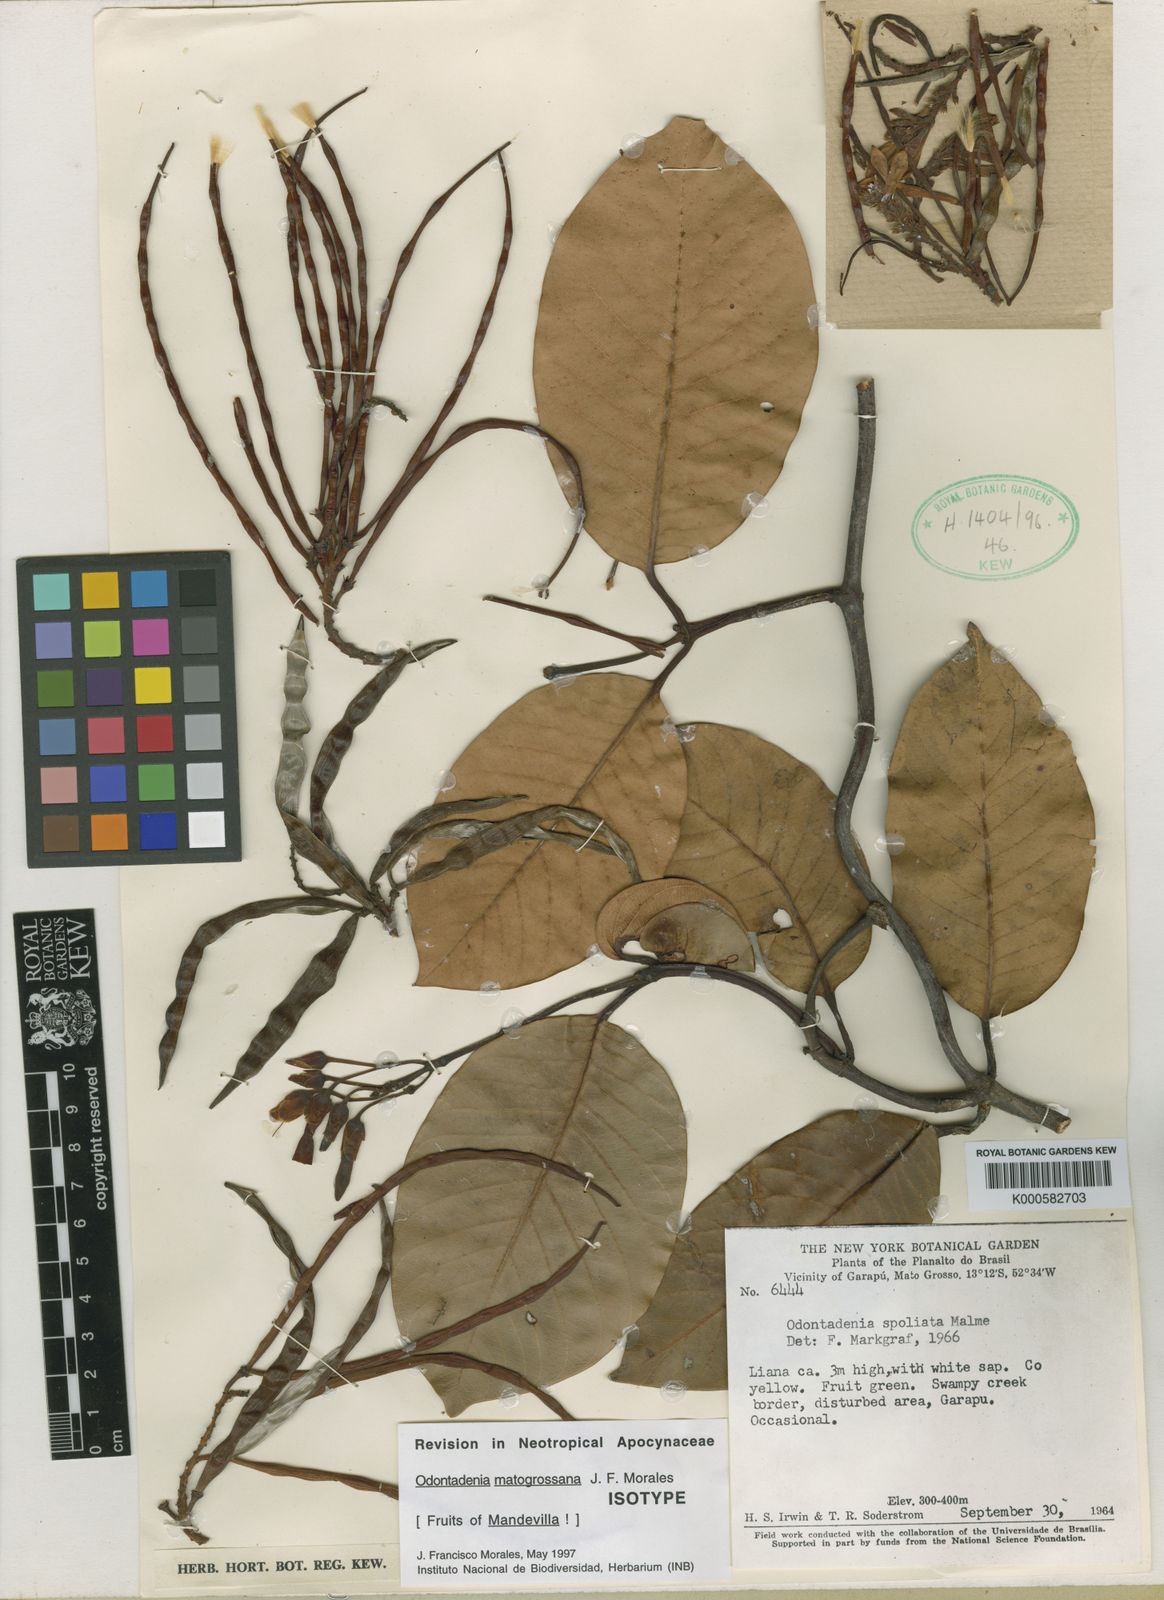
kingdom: Plantae
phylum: Tracheophyta
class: Magnoliopsida
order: Gentianales
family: Apocynaceae
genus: Odontadenia
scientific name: Odontadenia matogrossana
